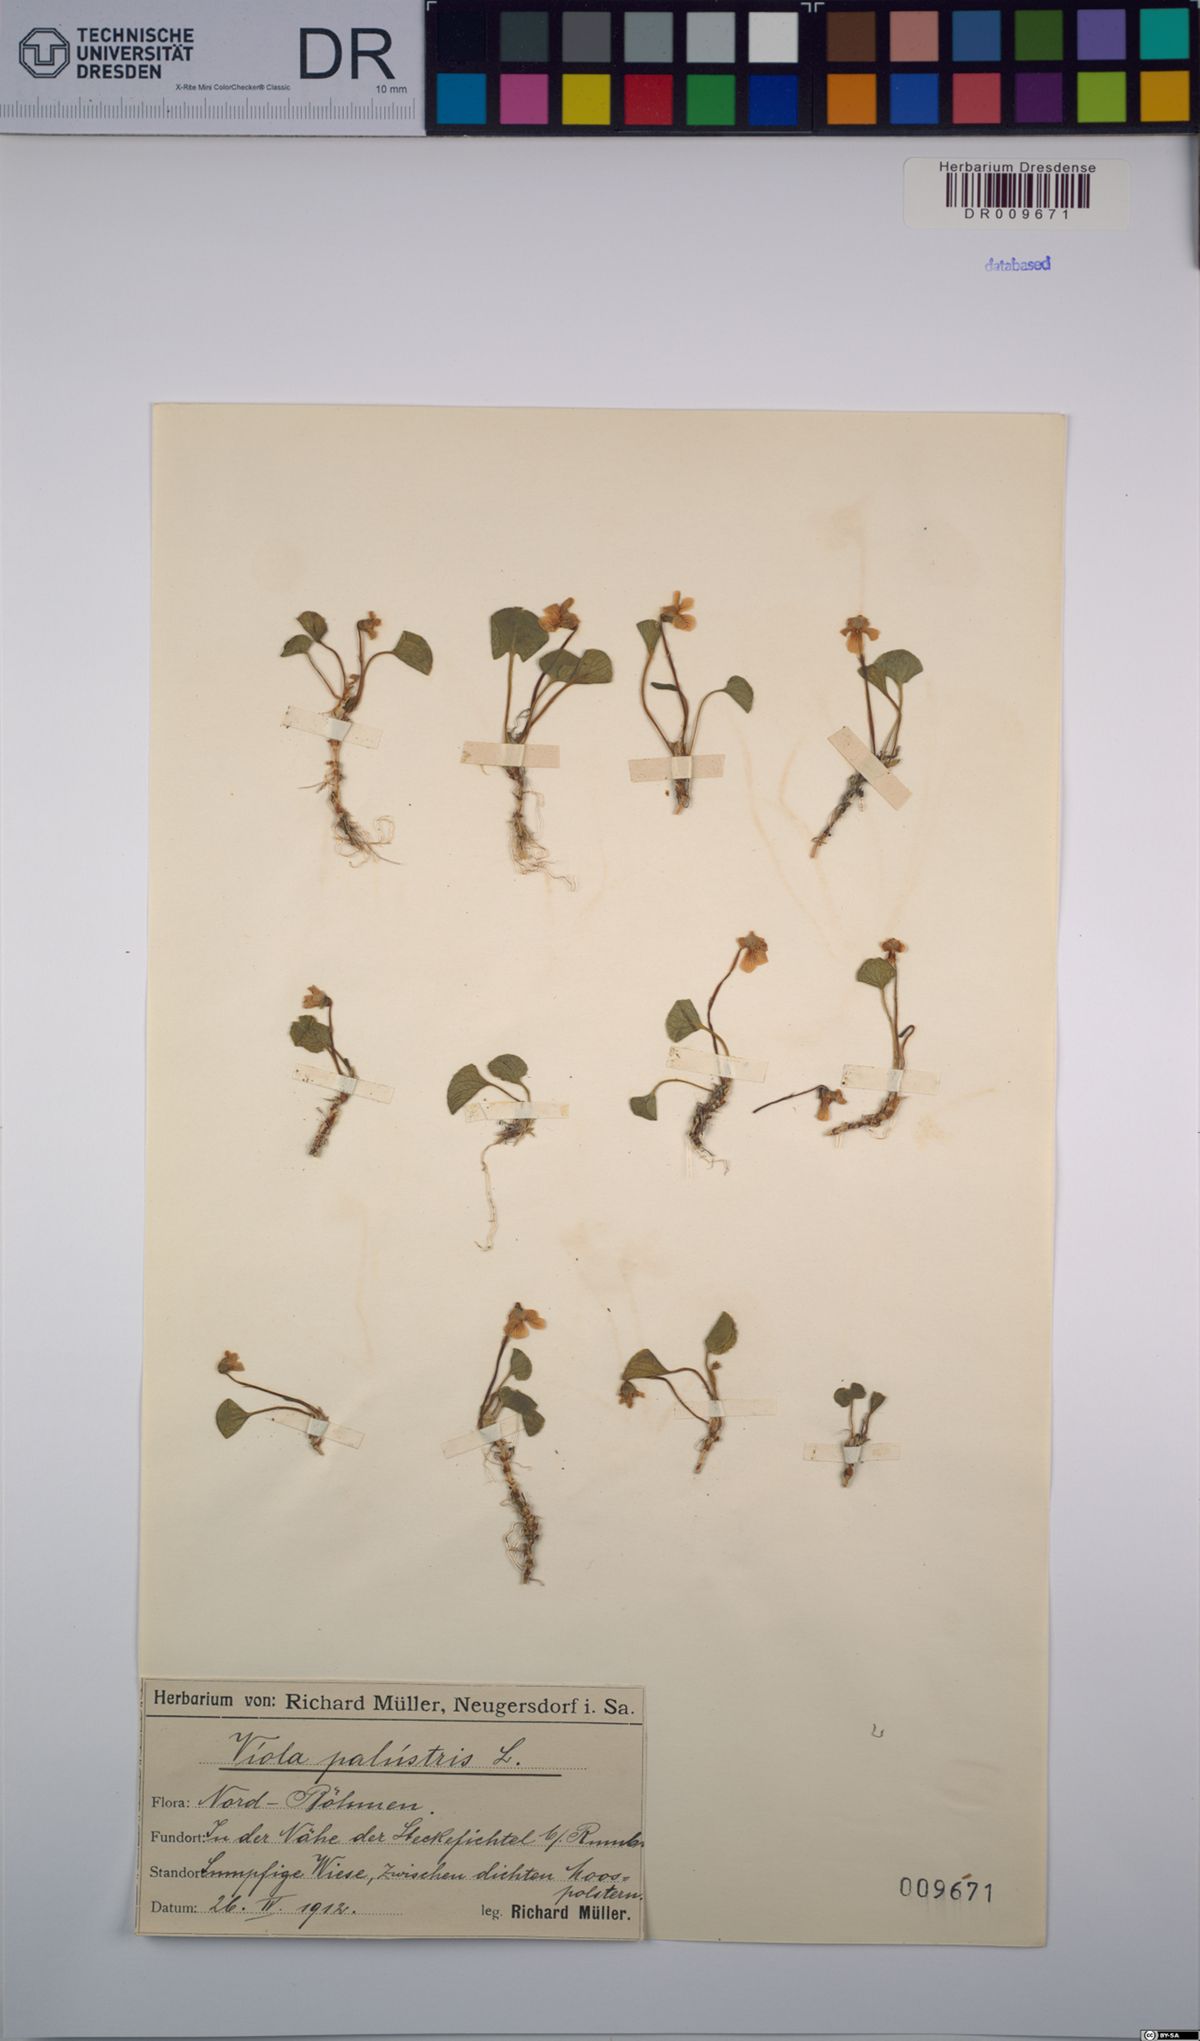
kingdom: Plantae
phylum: Tracheophyta
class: Magnoliopsida
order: Malpighiales
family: Violaceae
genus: Viola
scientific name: Viola palustris
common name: Marsh violet
